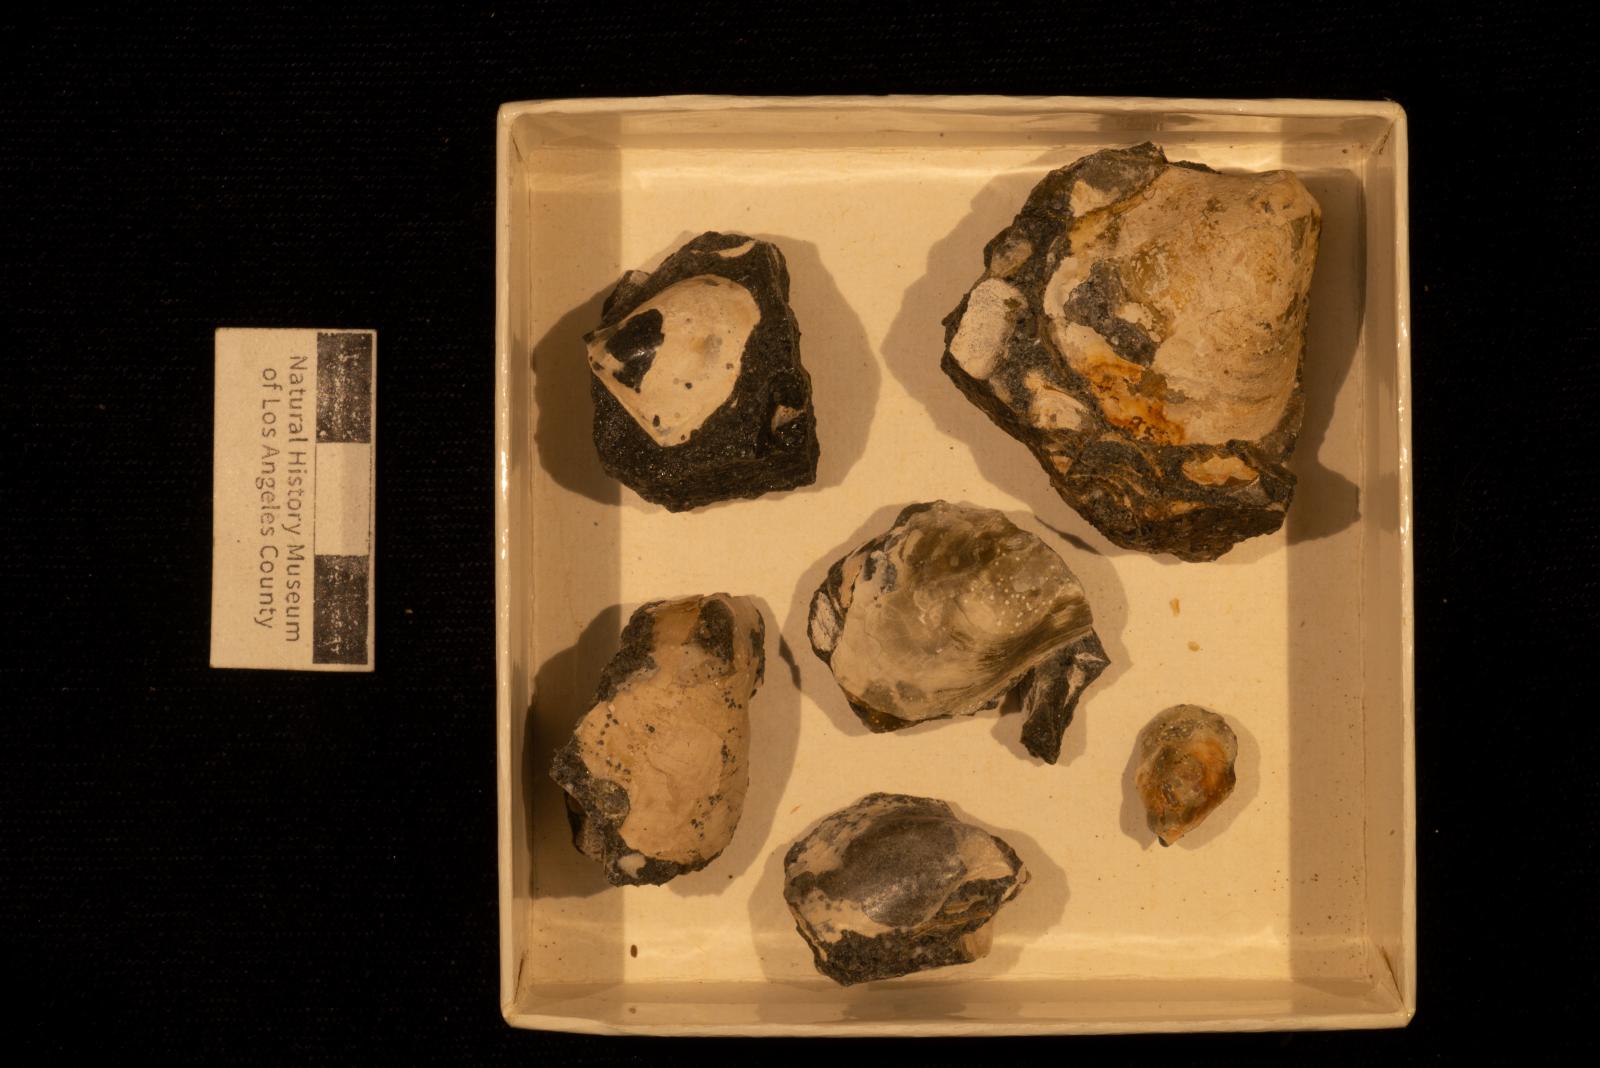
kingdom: Animalia
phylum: Porifera
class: Demospongiae
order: Clionaida
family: Clionaidae
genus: Entobia
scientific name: Entobia
